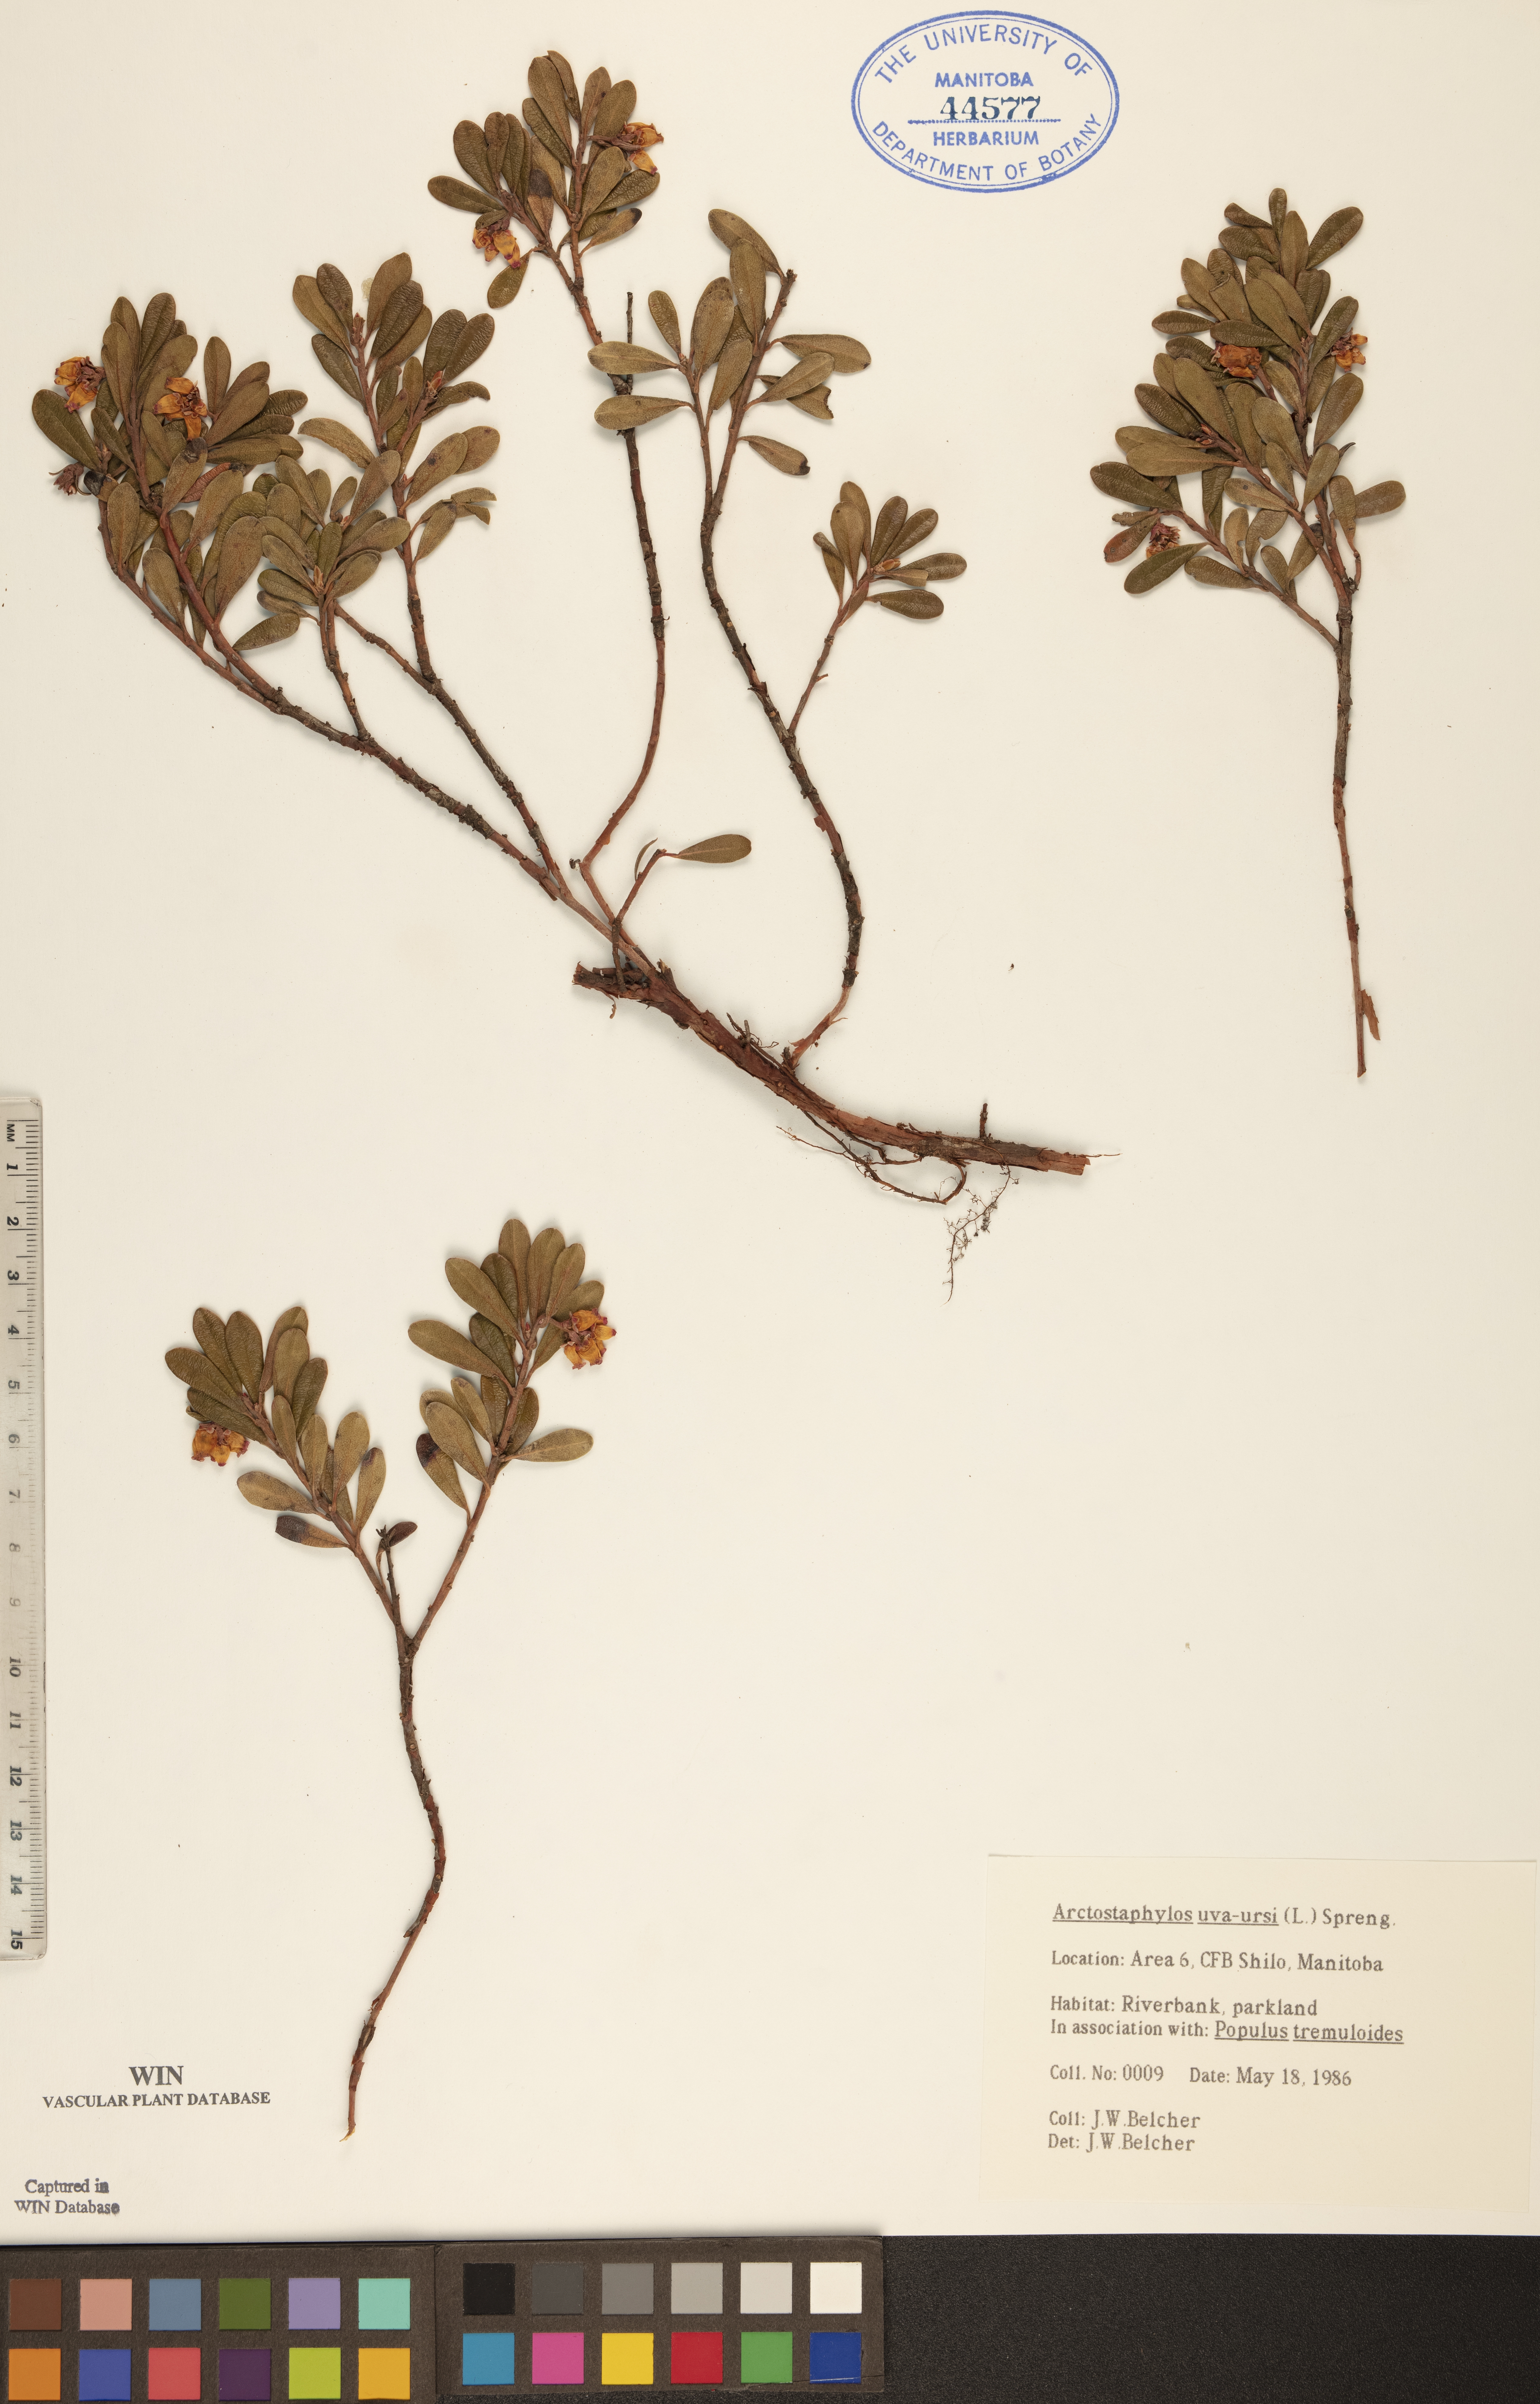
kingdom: Plantae
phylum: Tracheophyta
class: Magnoliopsida
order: Ericales
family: Ericaceae
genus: Arctostaphylos
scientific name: Arctostaphylos uva-ursi
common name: Bearberry
